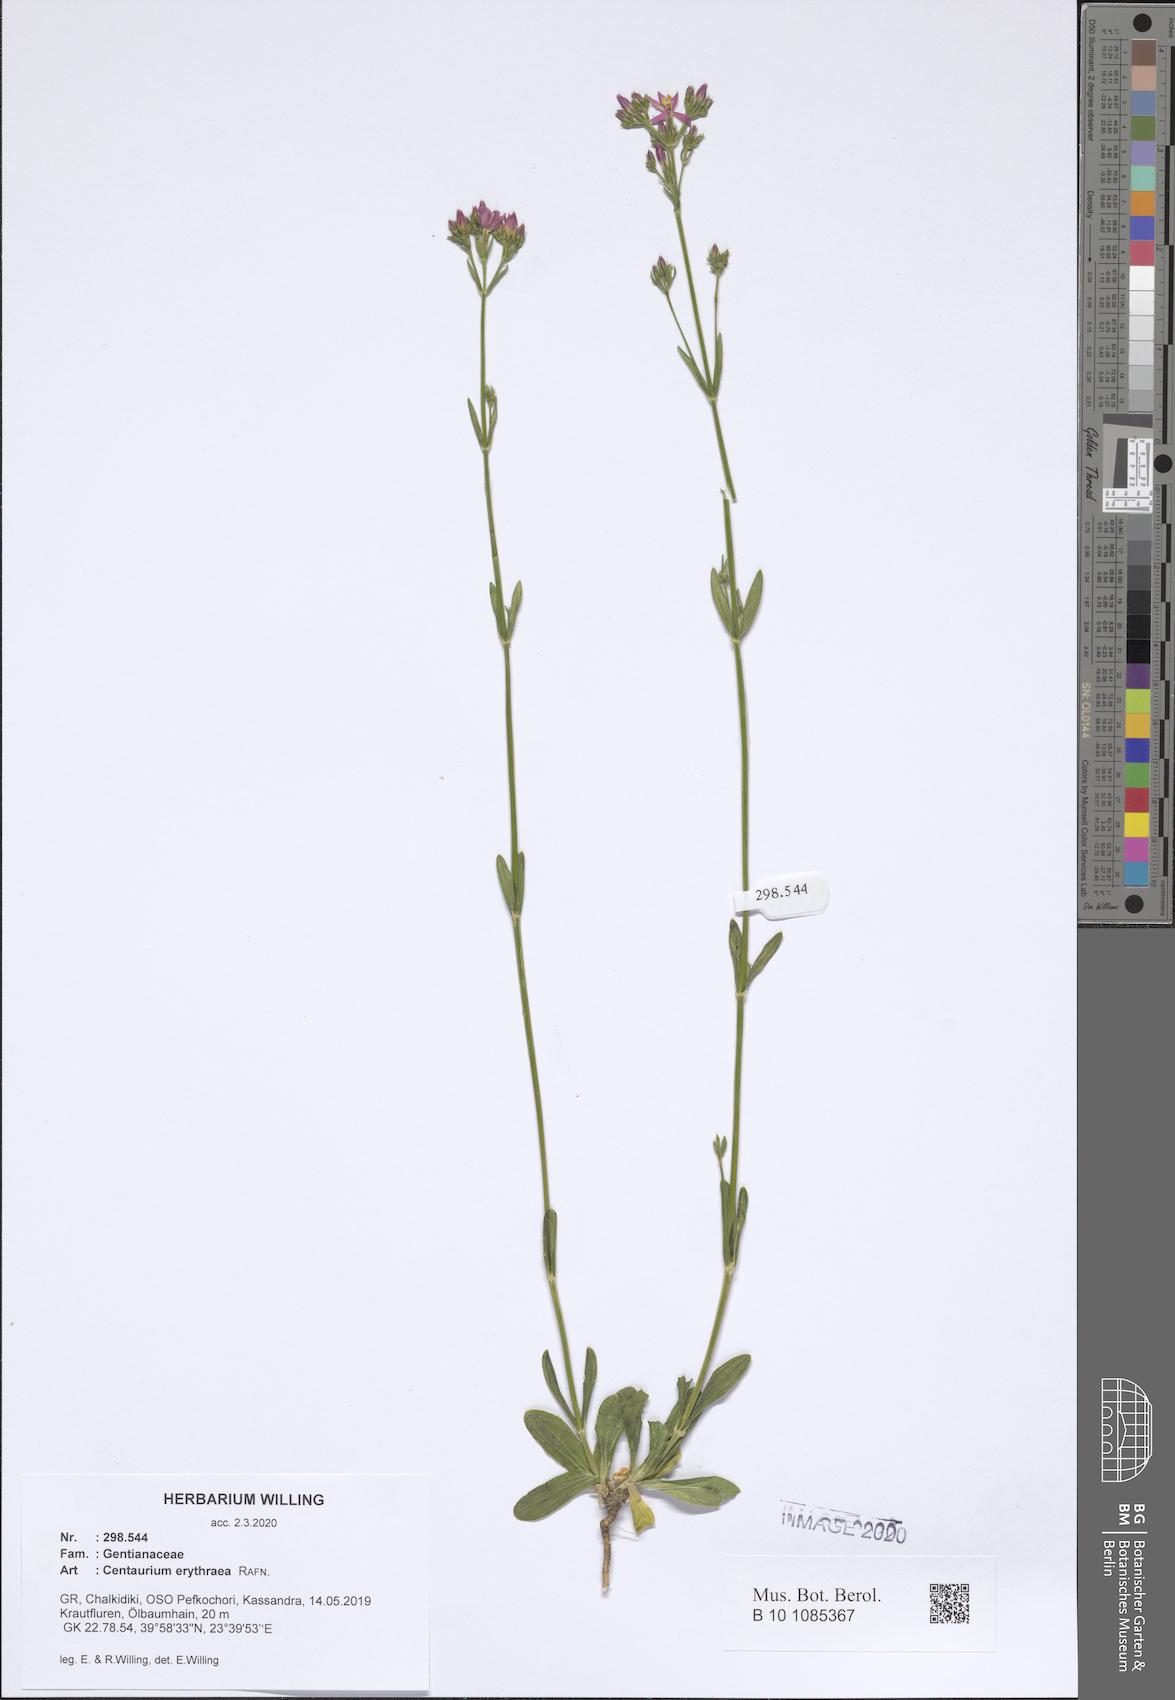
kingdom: Plantae
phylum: Tracheophyta
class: Magnoliopsida
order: Gentianales
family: Gentianaceae
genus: Centaurium
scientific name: Centaurium erythraea
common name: Common centaury
